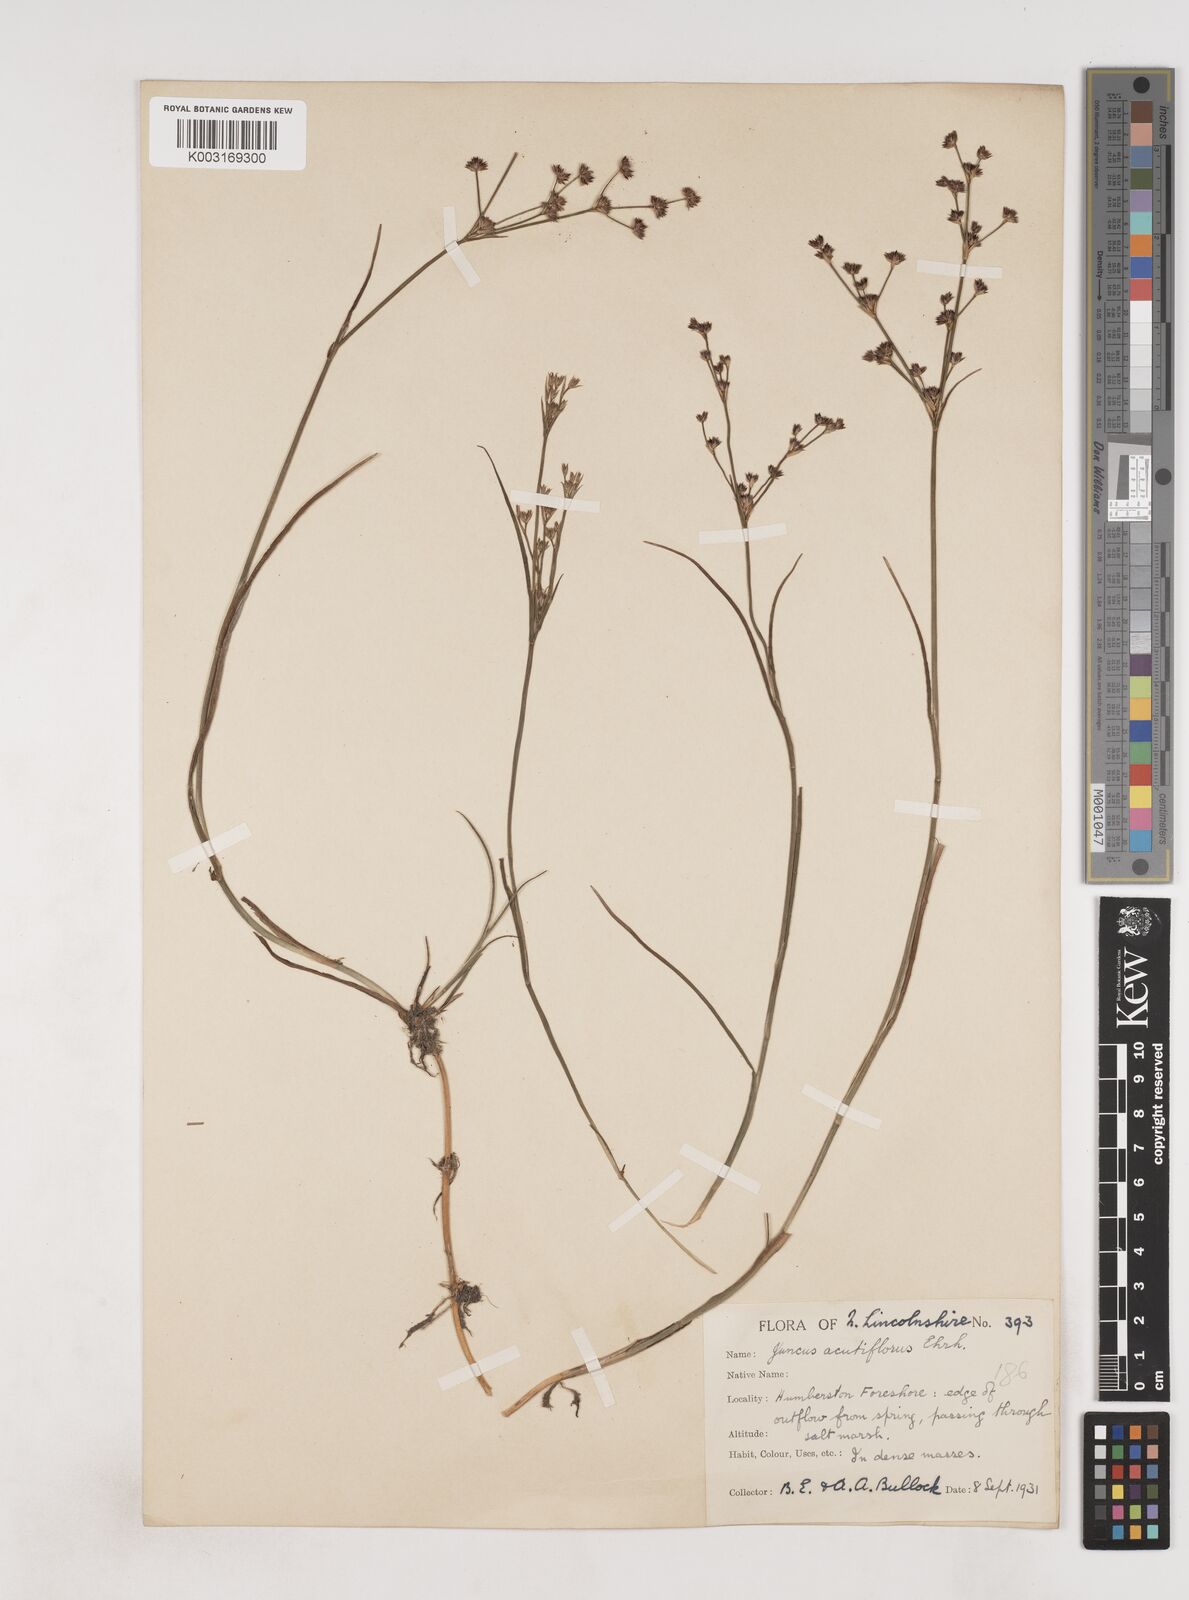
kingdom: Plantae
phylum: Tracheophyta
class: Liliopsida
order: Poales
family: Juncaceae
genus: Juncus
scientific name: Juncus acutiflorus
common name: Sharp-flowered rush
